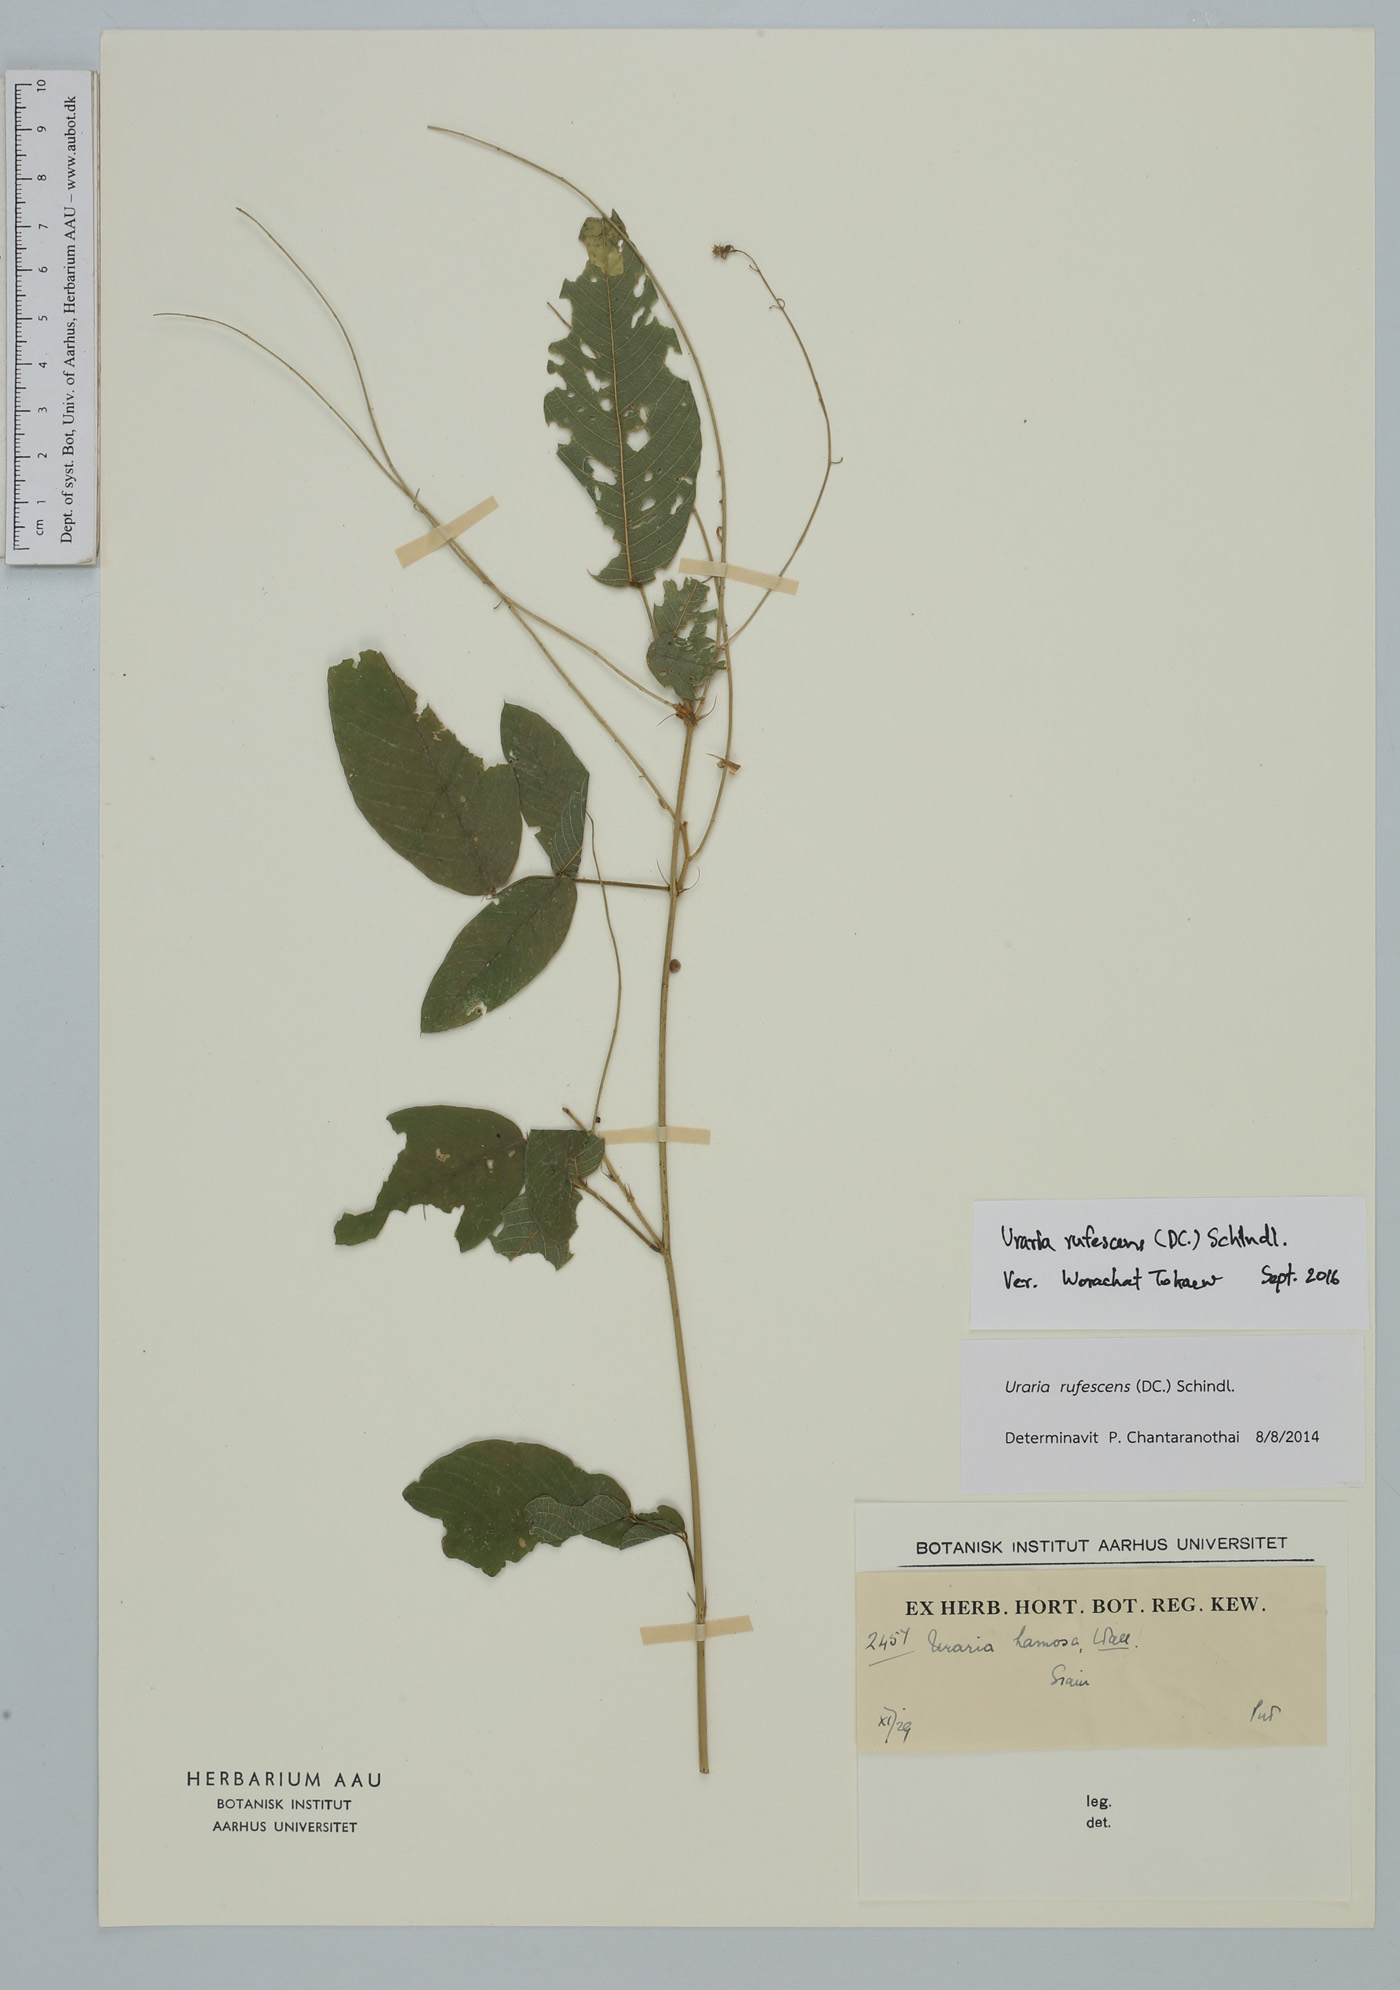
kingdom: Plantae
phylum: Tracheophyta
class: Magnoliopsida
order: Fabales
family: Fabaceae
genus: Uraria
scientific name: Uraria rufescens
